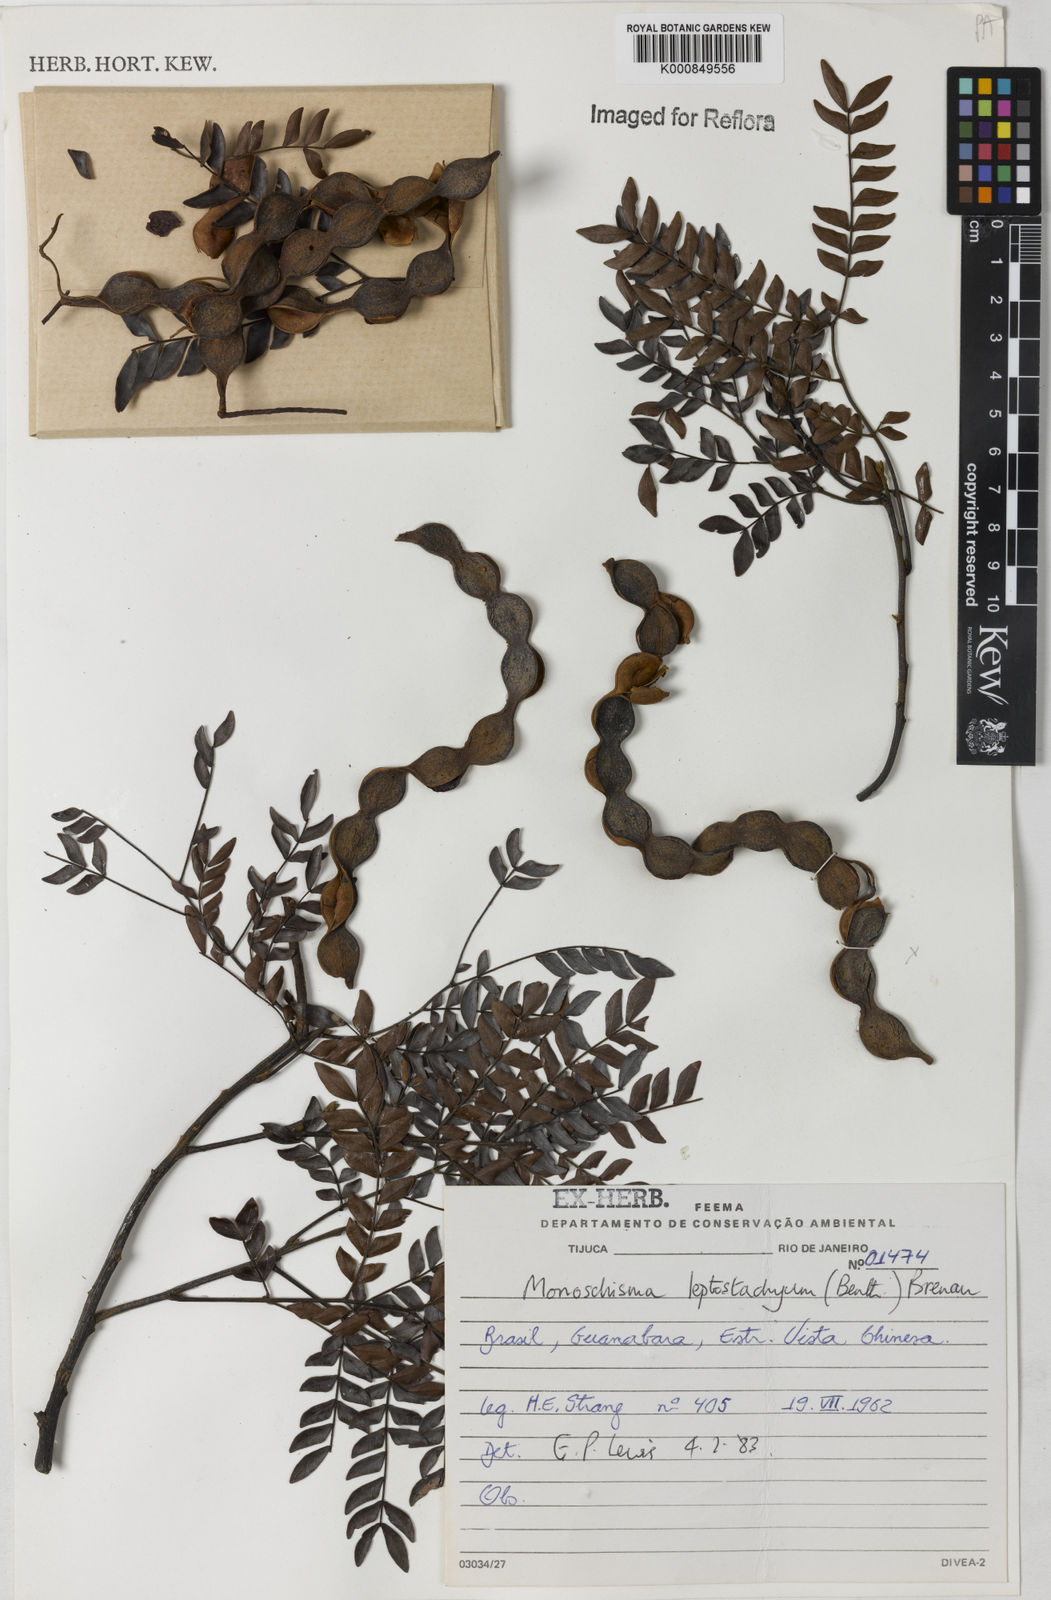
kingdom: Plantae
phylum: Tracheophyta
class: Magnoliopsida
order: Fabales
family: Fabaceae
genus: Pseudopiptadenia
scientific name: Pseudopiptadenia leptostachya
